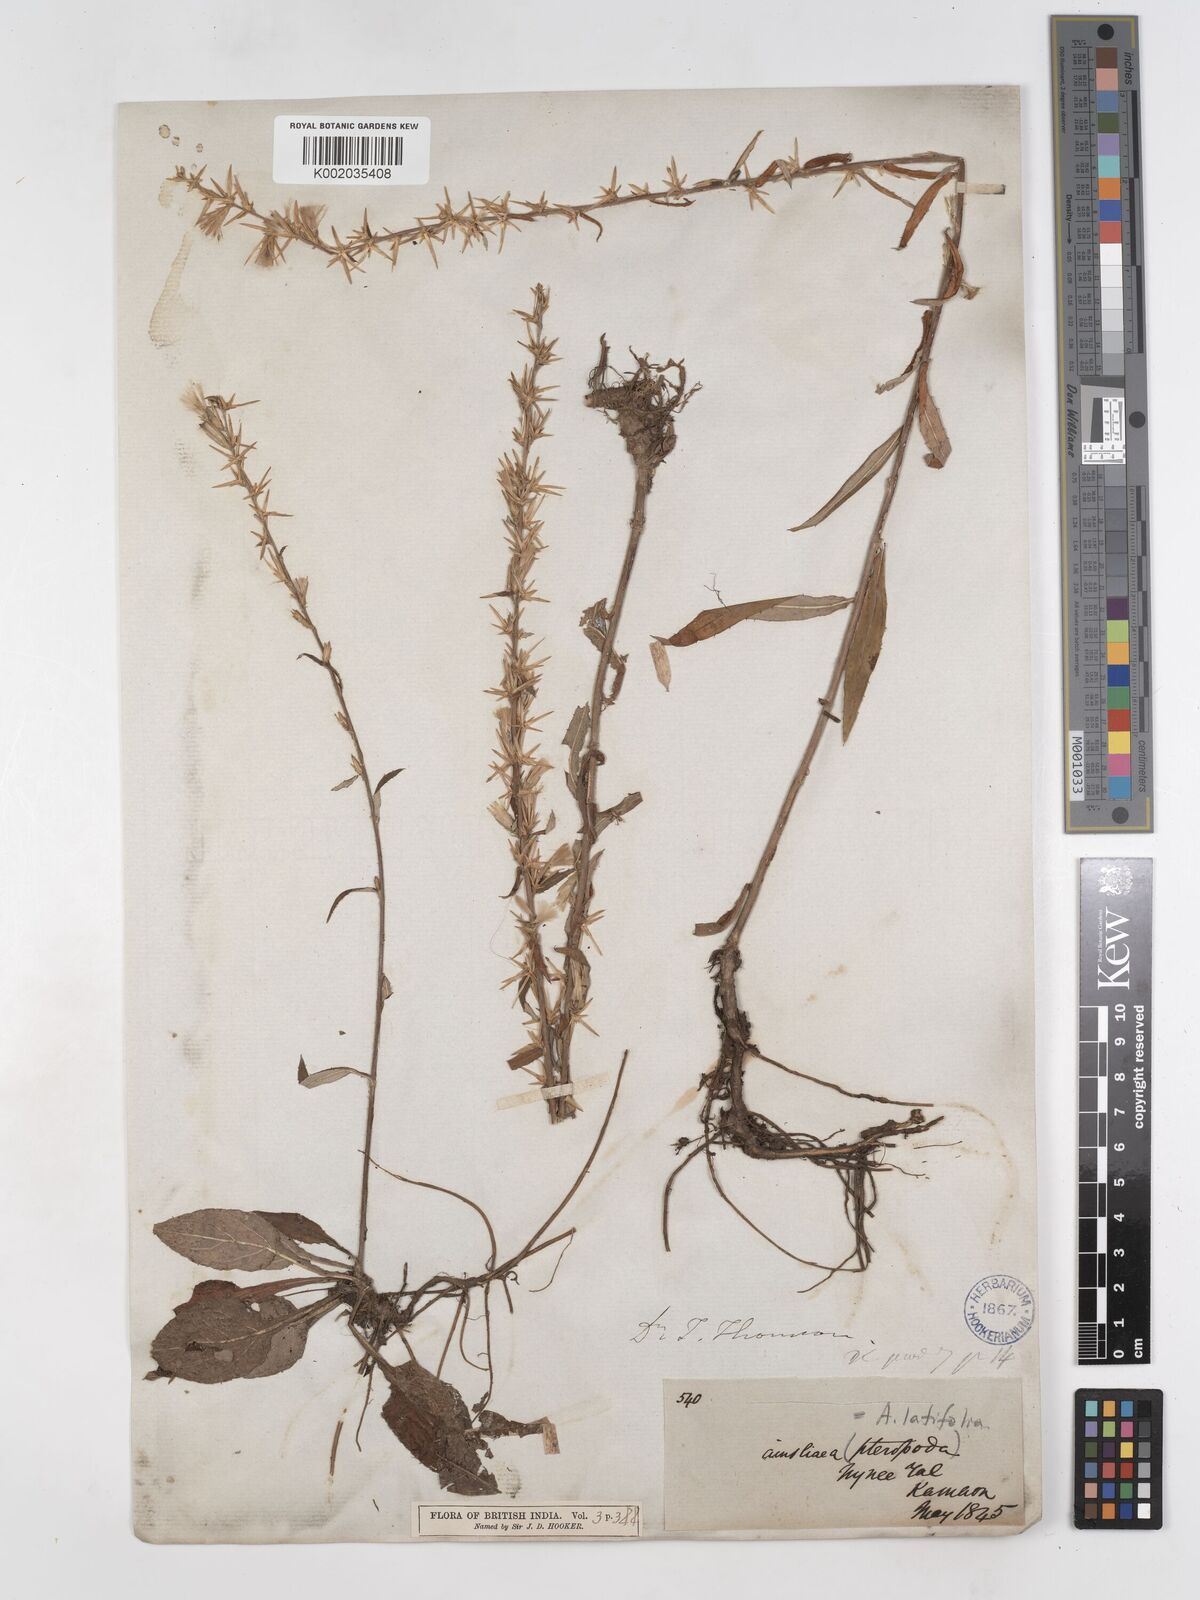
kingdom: Plantae
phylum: Tracheophyta
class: Magnoliopsida
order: Asterales
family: Asteraceae
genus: Ainsliaea
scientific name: Ainsliaea latifolia
